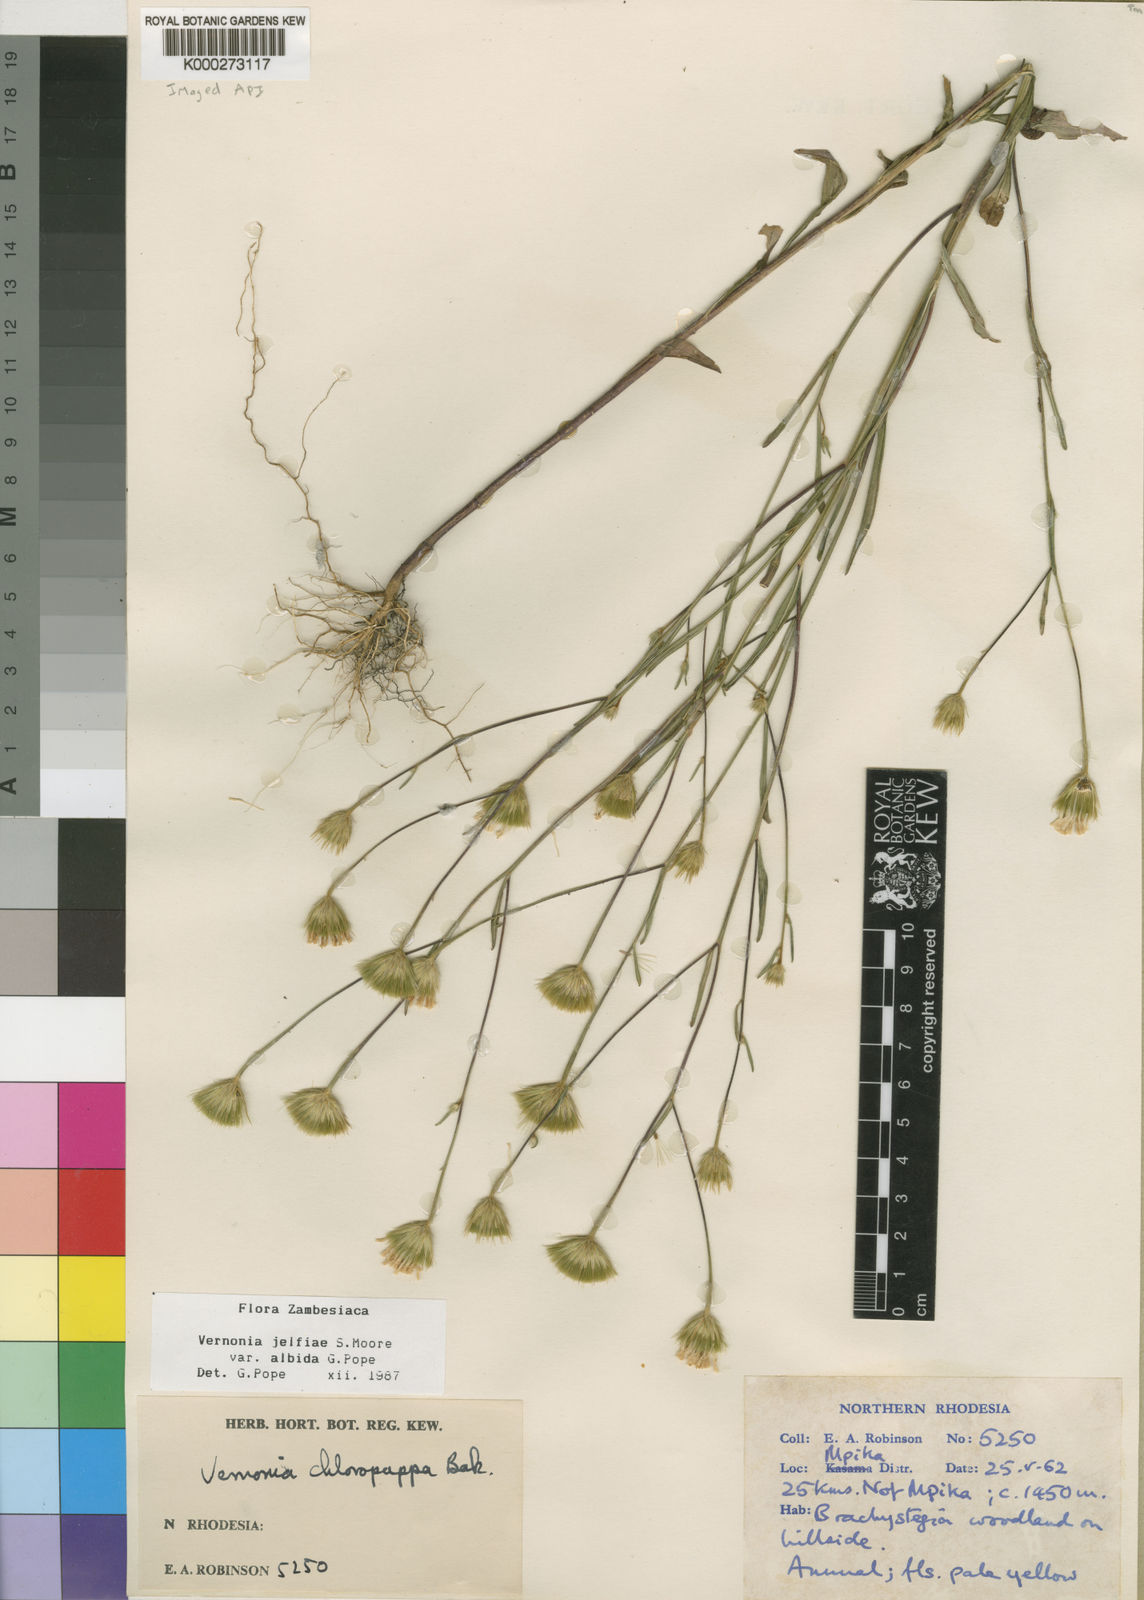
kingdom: Plantae
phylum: Tracheophyta
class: Magnoliopsida
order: Asterales
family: Asteraceae
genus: Crystallopollen
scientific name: Crystallopollen jelfiae
